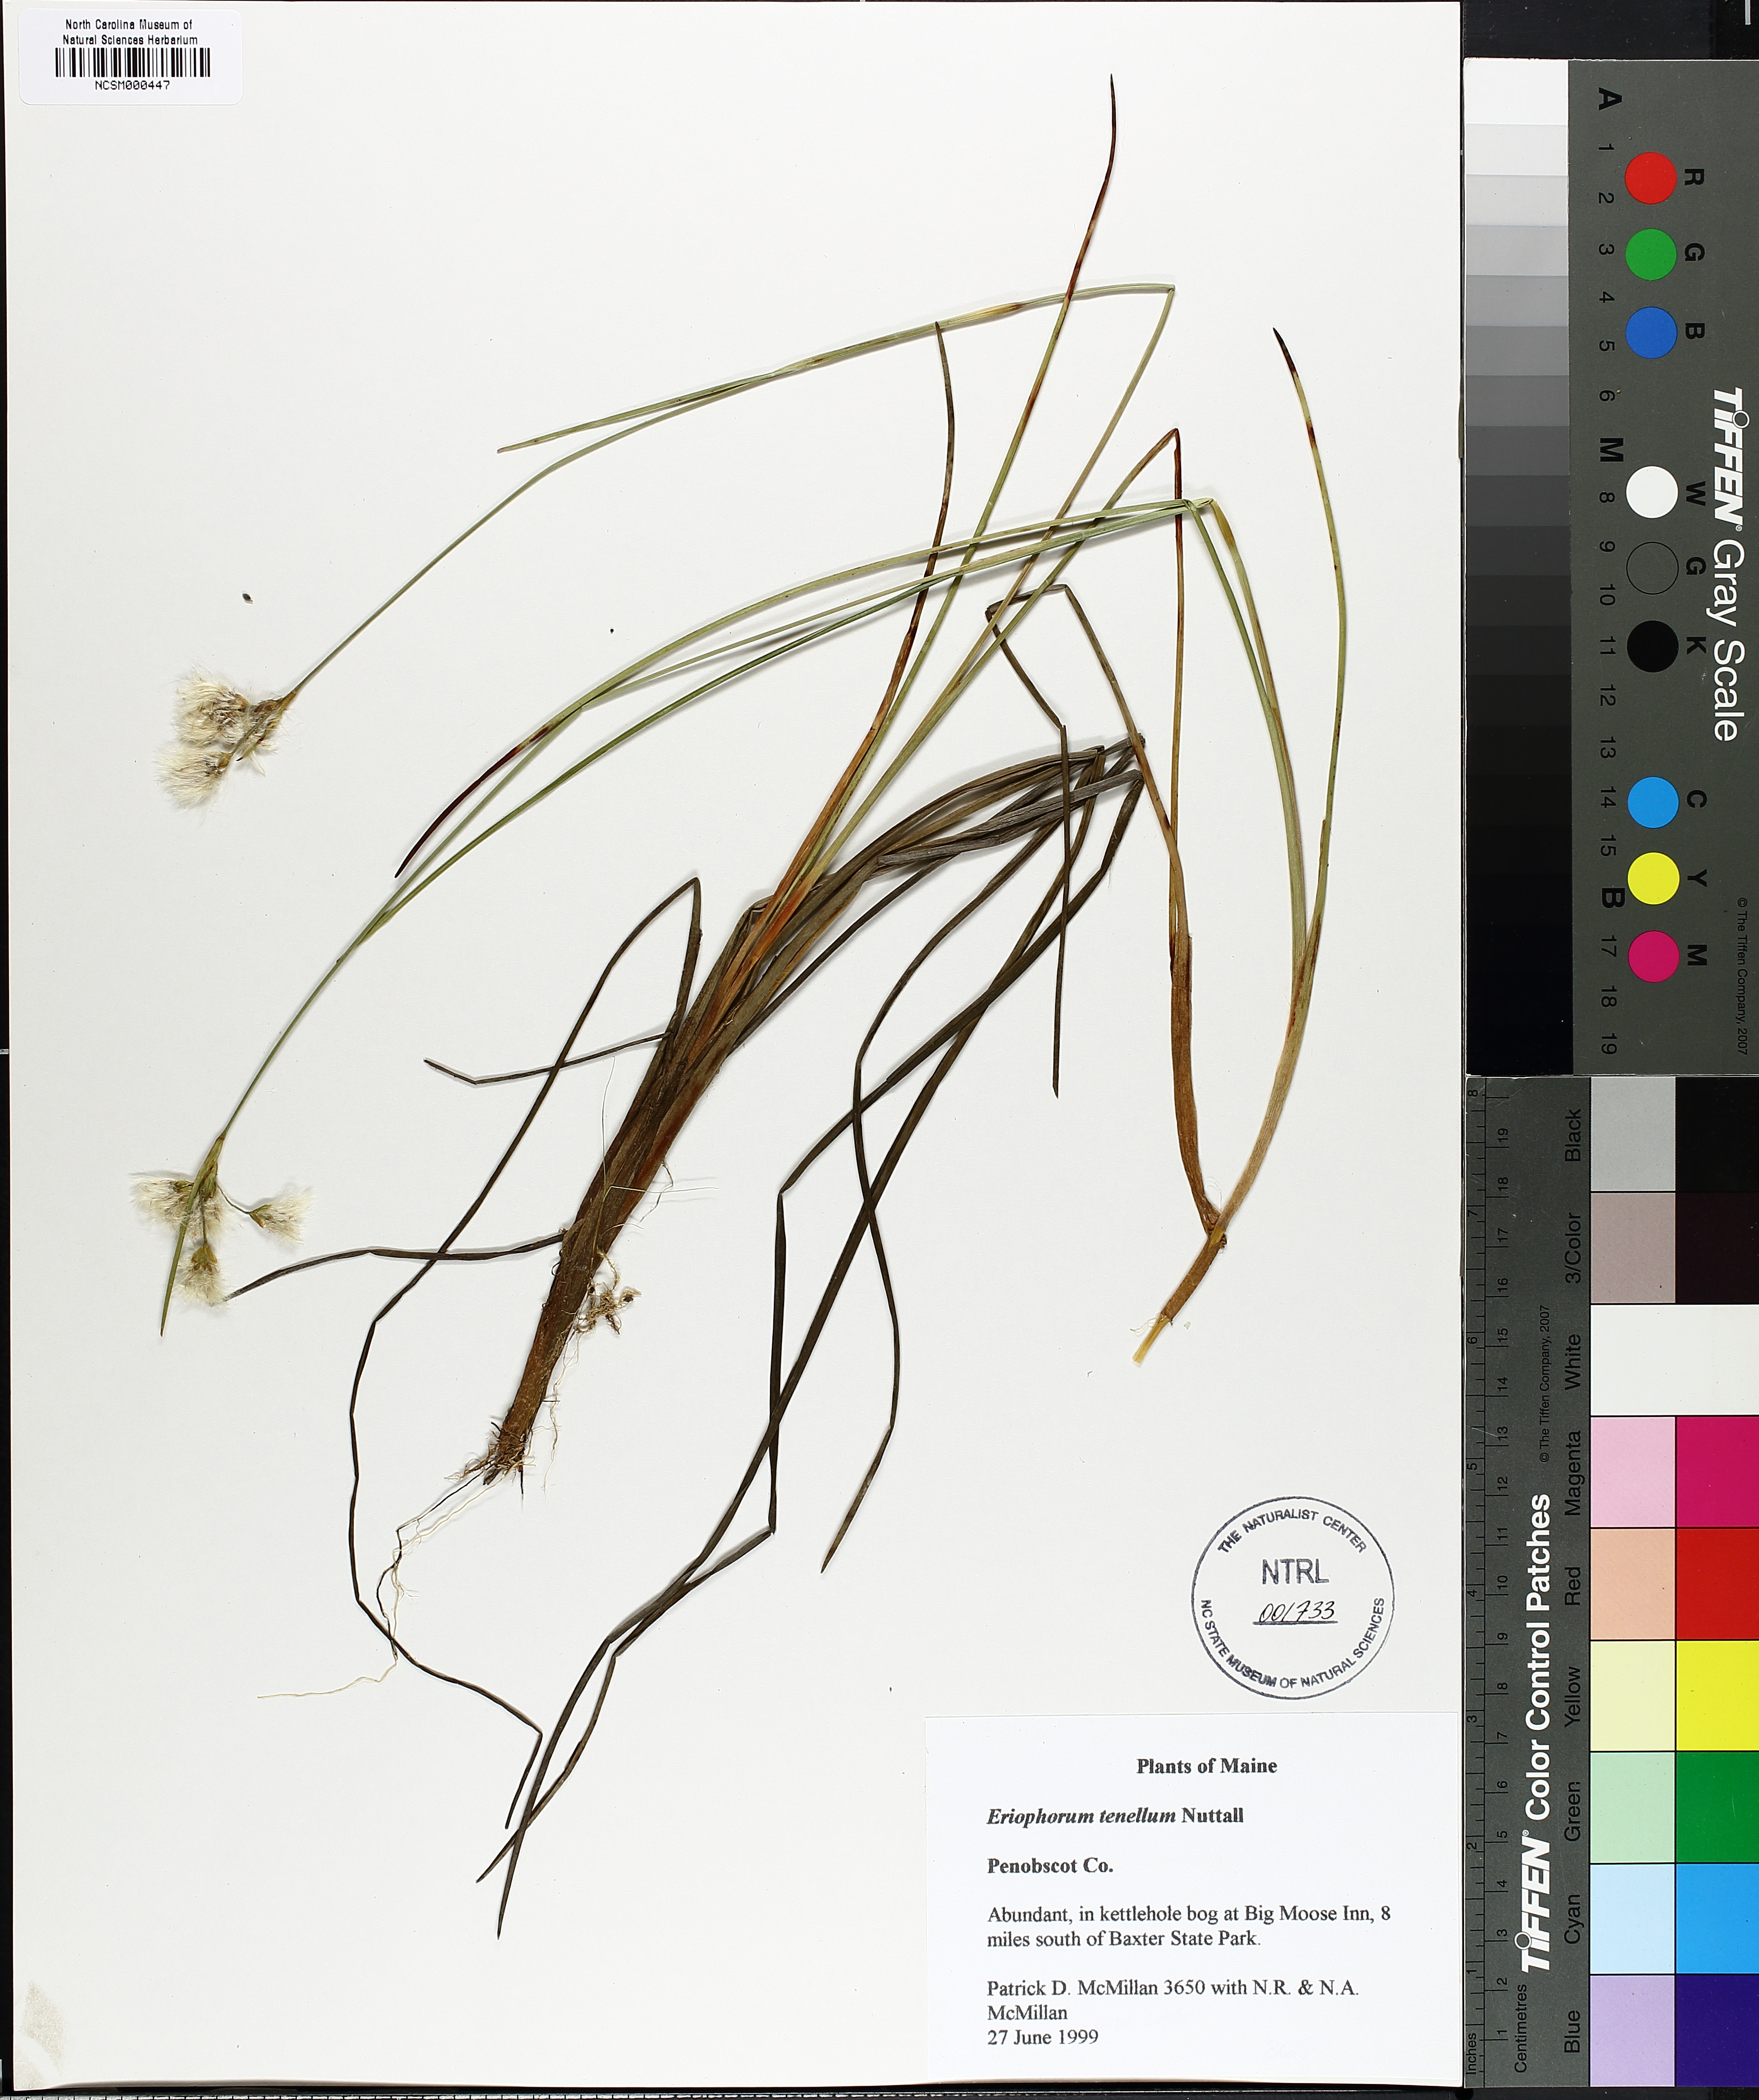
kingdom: Plantae
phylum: Tracheophyta
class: Liliopsida
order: Poales
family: Cyperaceae
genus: Eriophorum
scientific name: Eriophorum tenellum
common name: Few-nerved cottongrass
